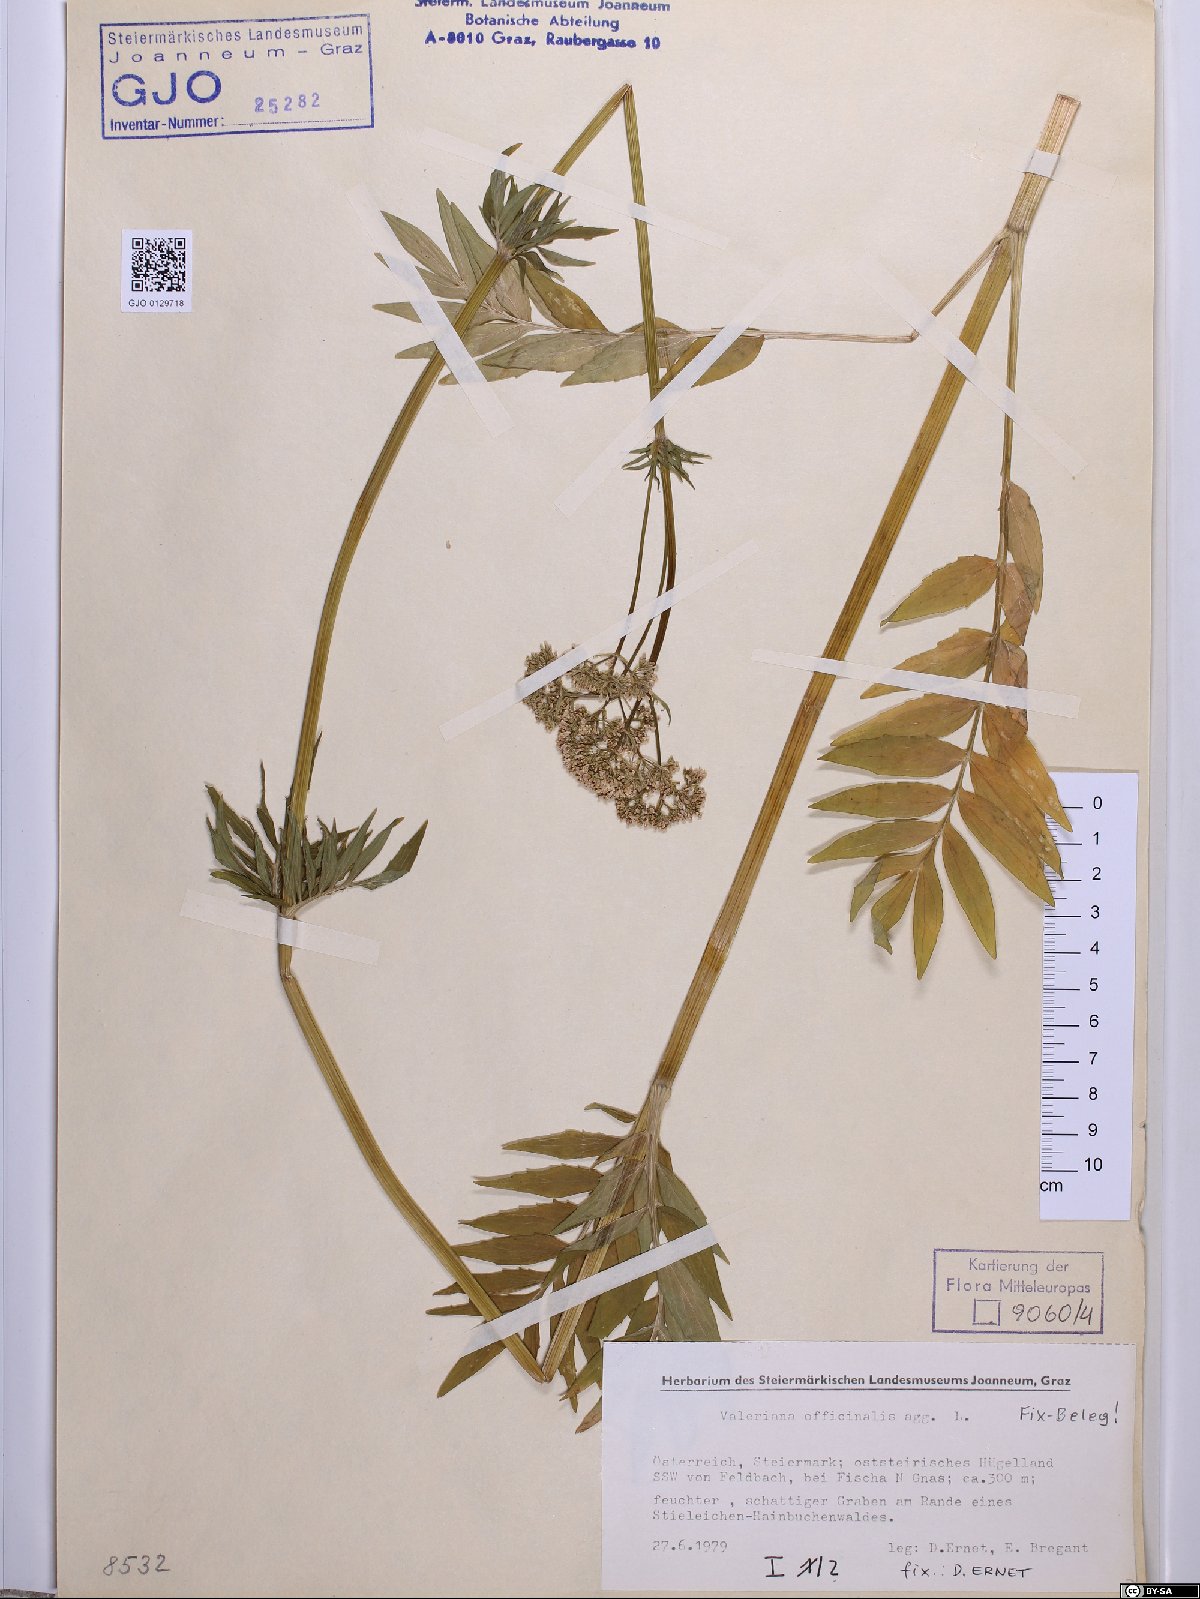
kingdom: Plantae
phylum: Tracheophyta
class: Magnoliopsida
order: Dipsacales
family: Caprifoliaceae
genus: Valeriana
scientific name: Valeriana officinalis
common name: Common valerian
